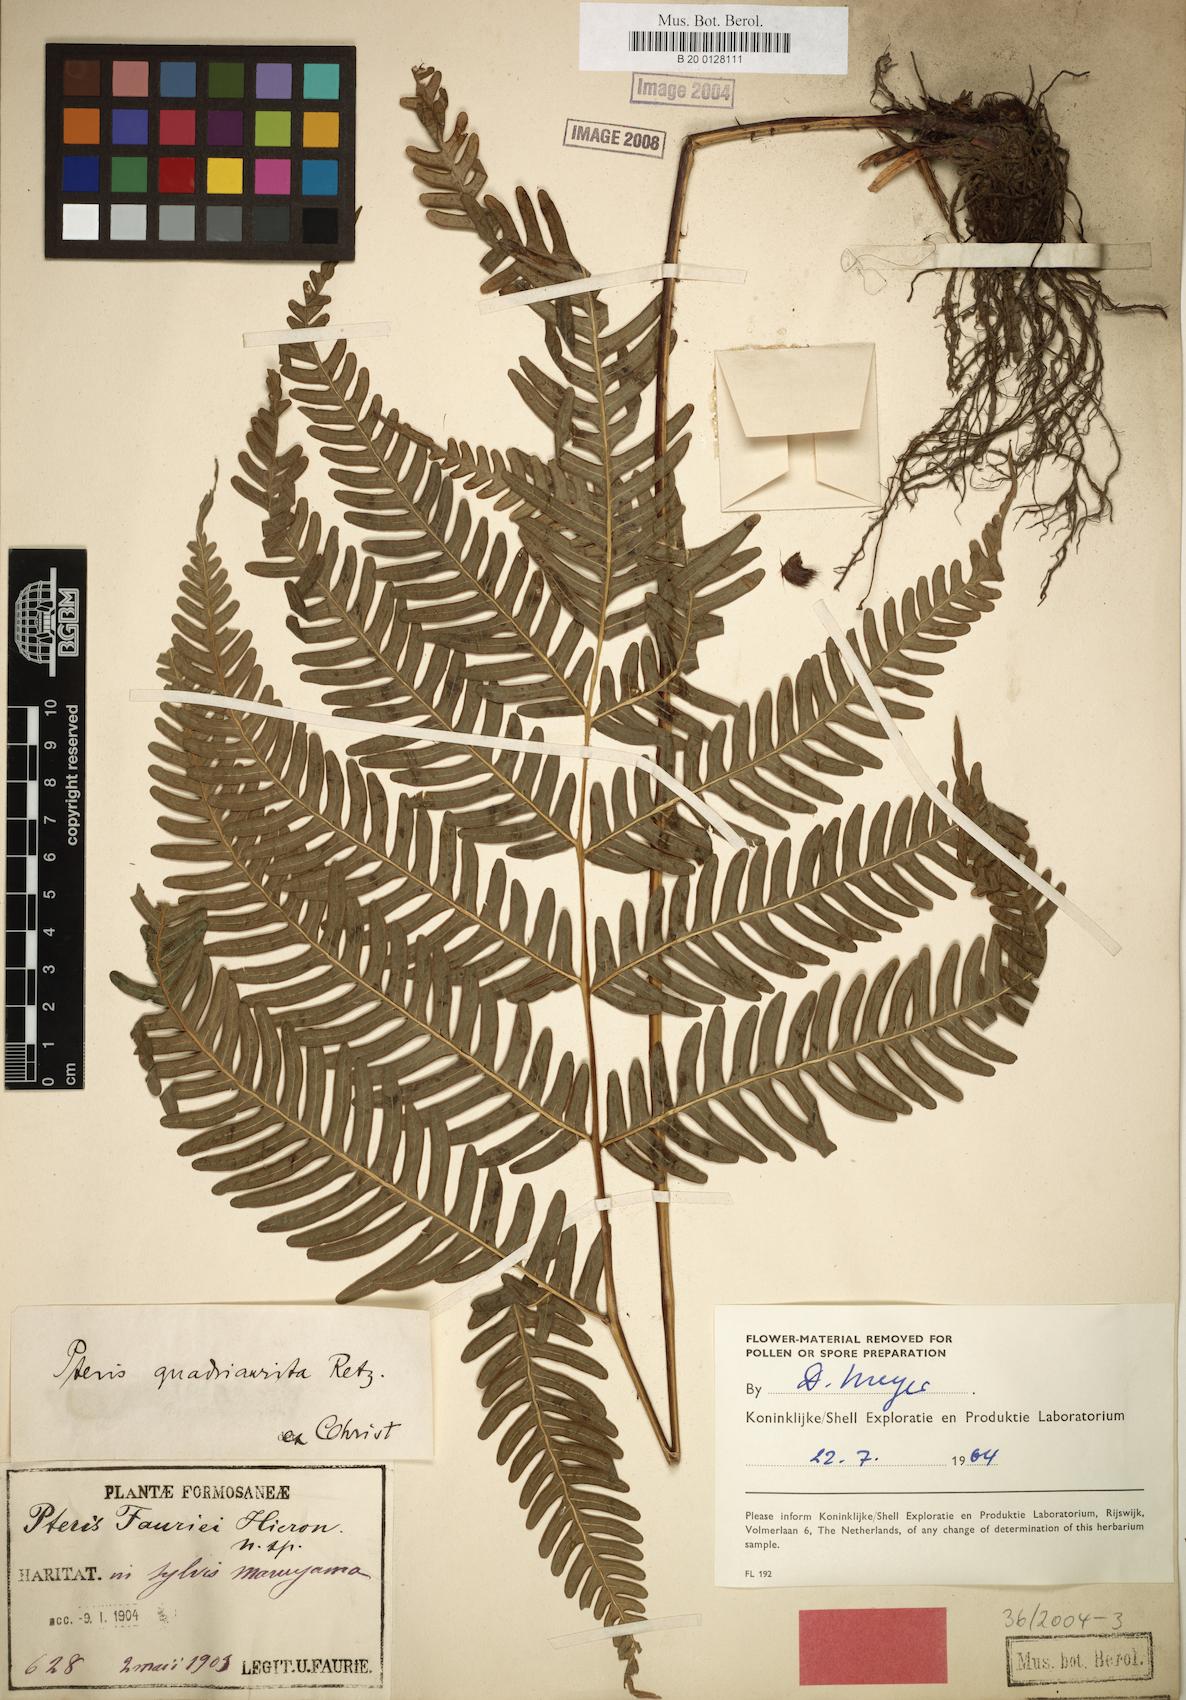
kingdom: Plantae
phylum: Tracheophyta
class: Polypodiopsida
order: Polypodiales
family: Pteridaceae
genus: Pteris
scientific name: Pteris fauriei
